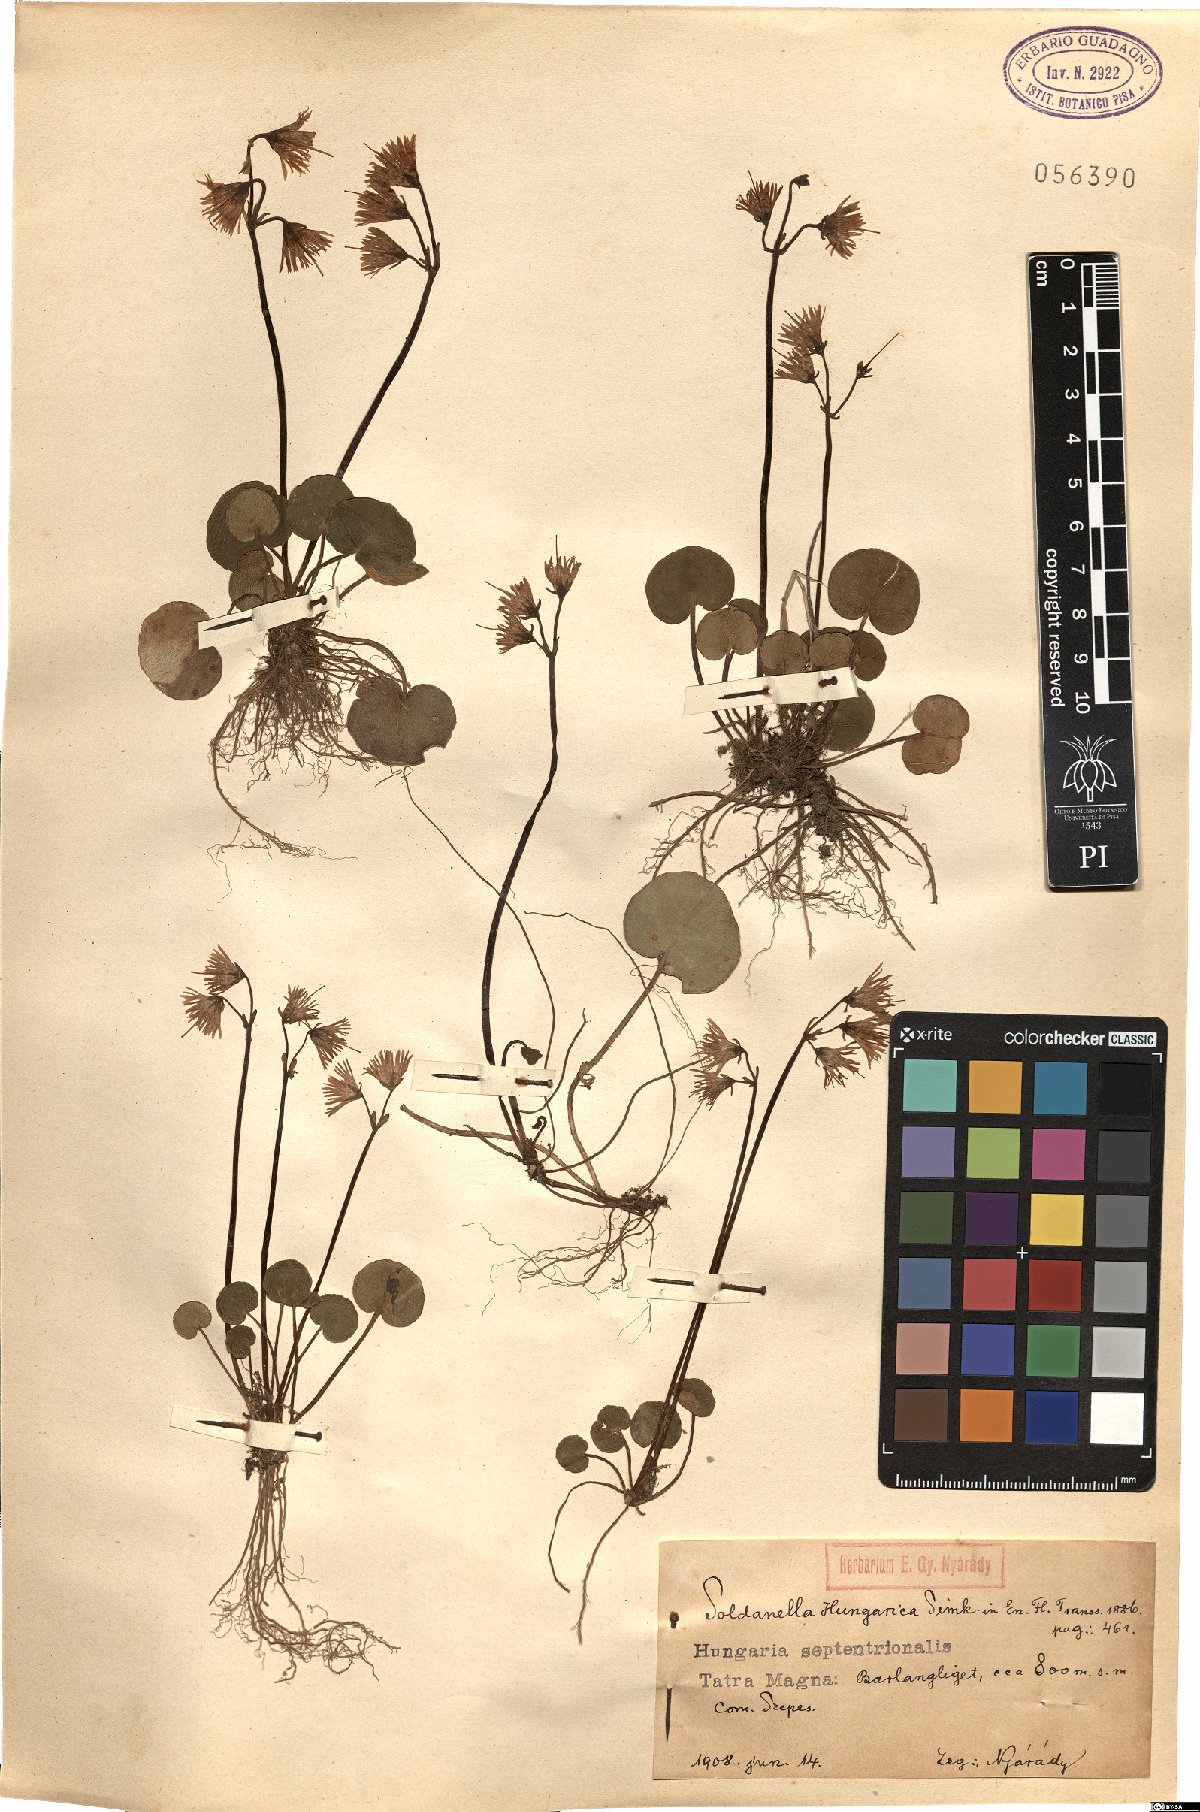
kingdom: Plantae
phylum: Tracheophyta
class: Magnoliopsida
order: Ericales
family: Primulaceae
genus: Soldanella
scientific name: Soldanella hungarica
